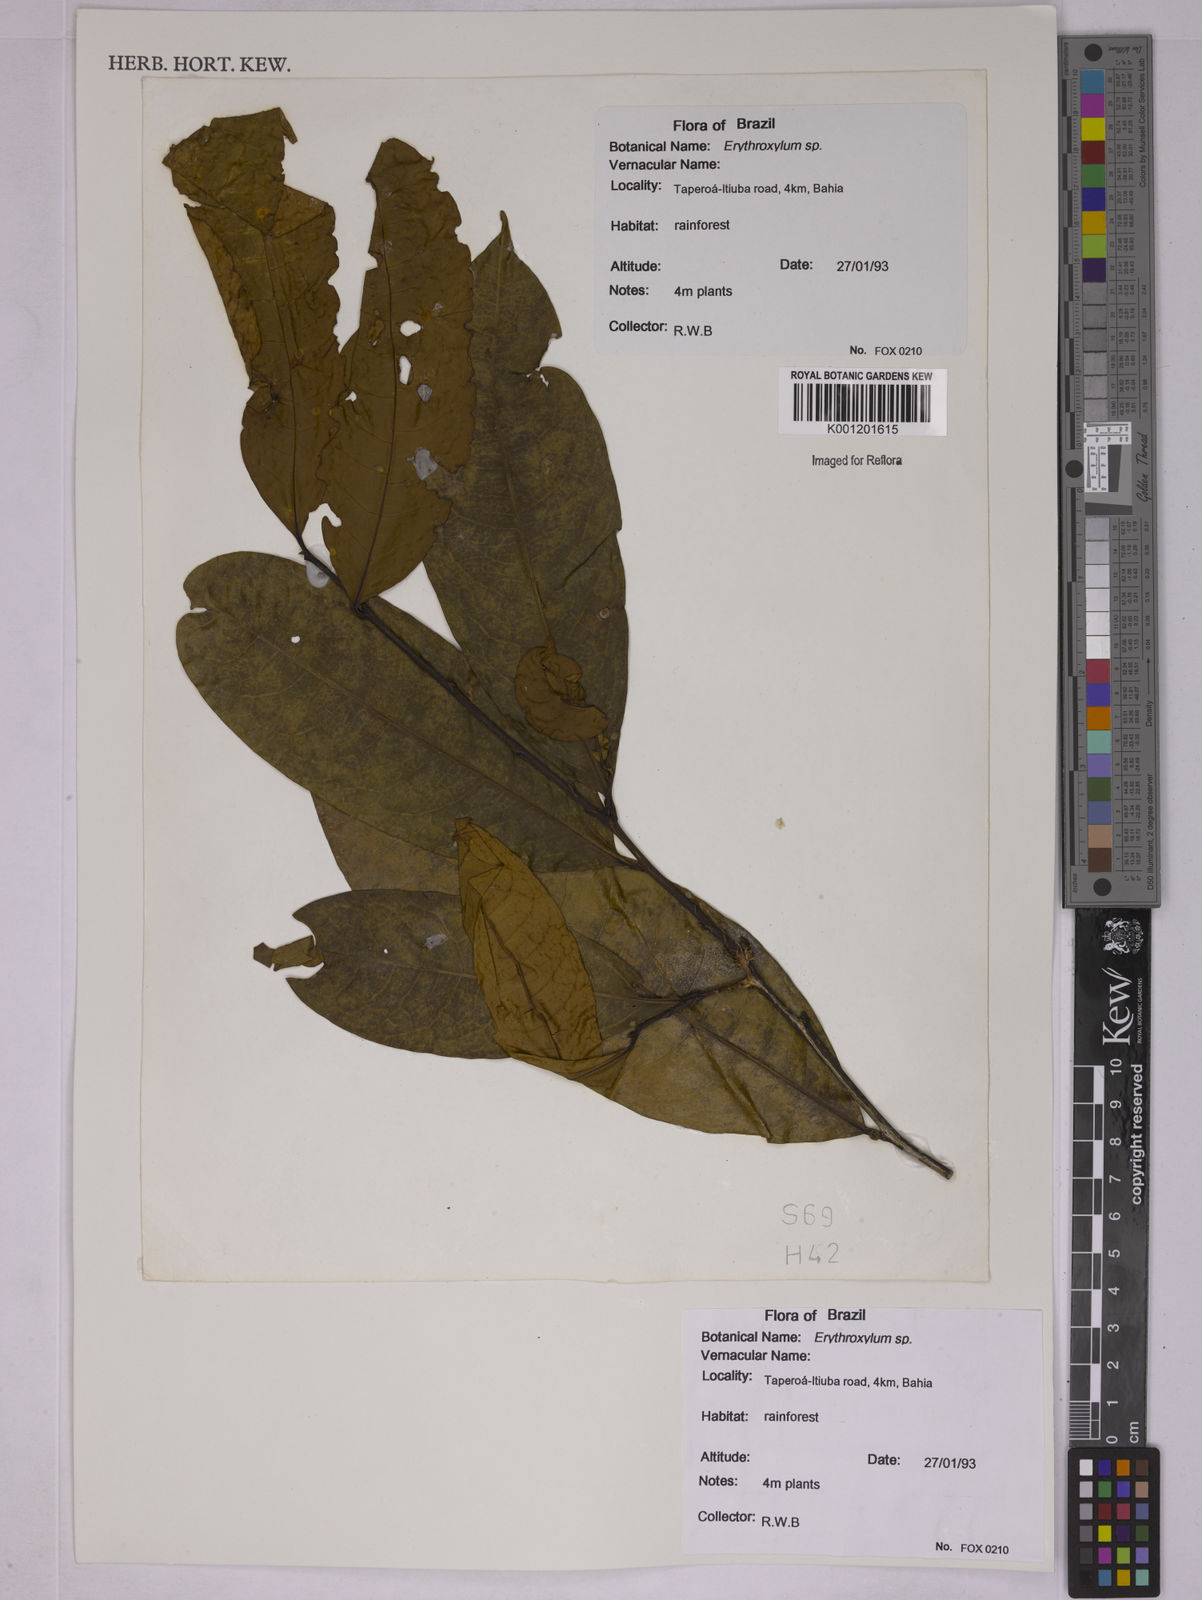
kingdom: Plantae
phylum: Tracheophyta
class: Magnoliopsida
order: Malpighiales
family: Erythroxylaceae
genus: Erythroxylum
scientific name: Erythroxylum
